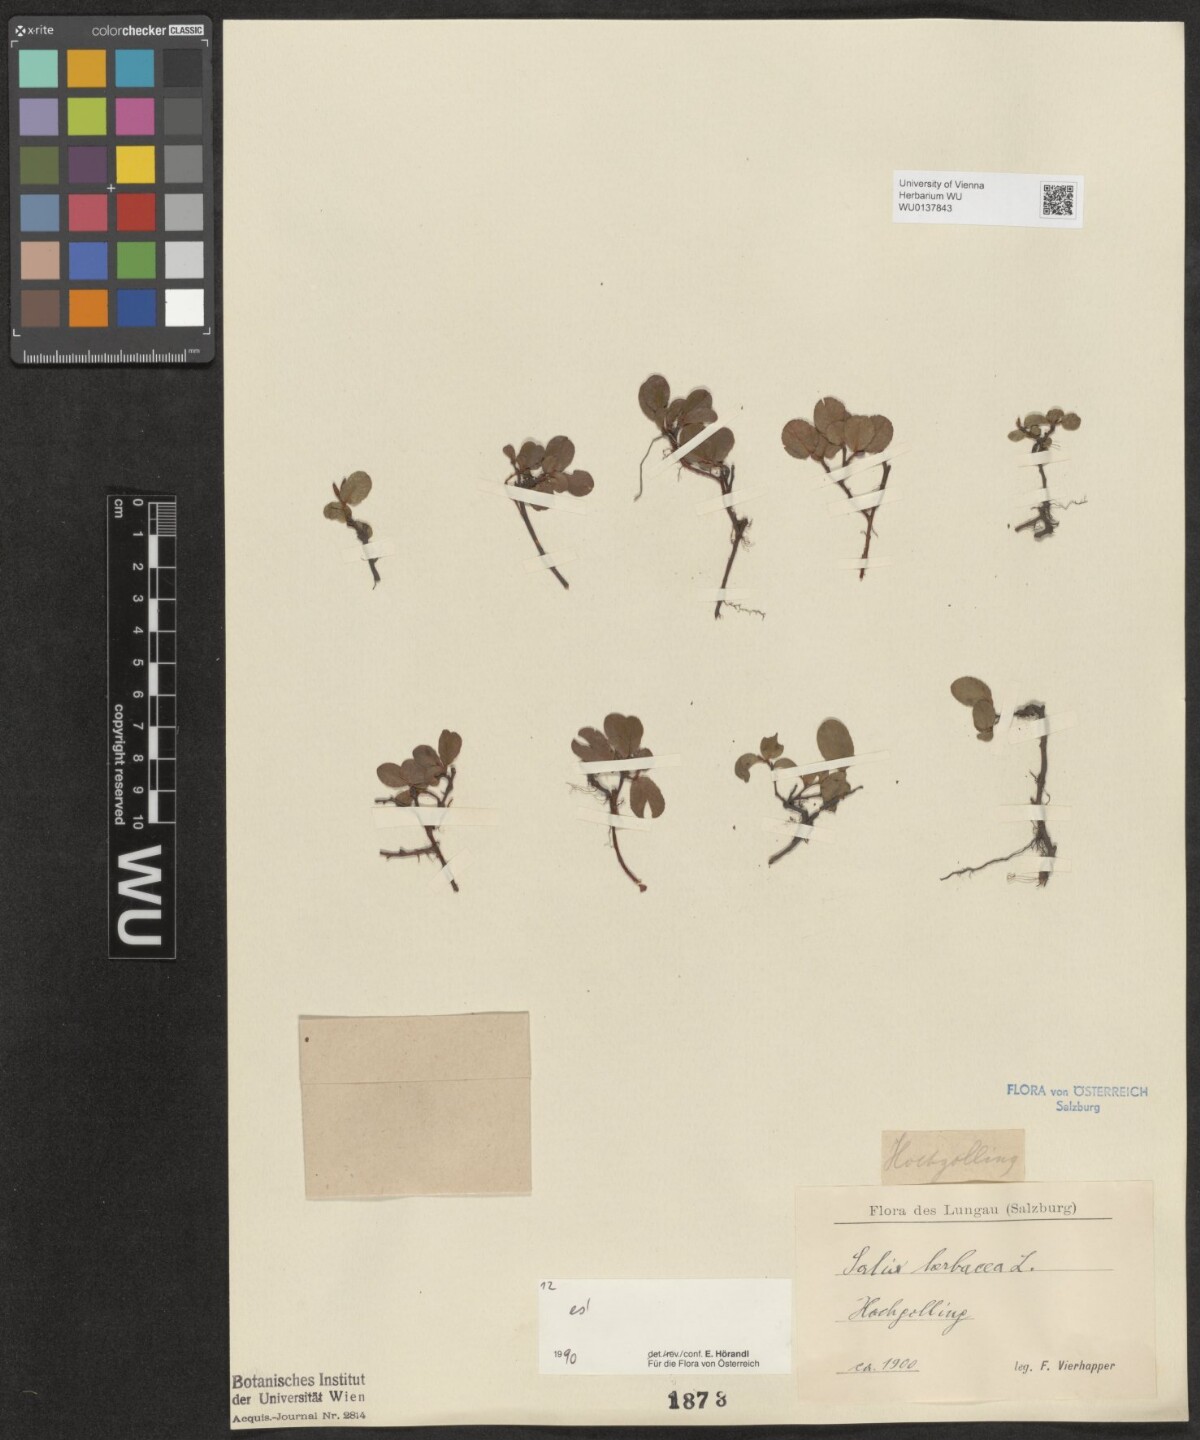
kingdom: Plantae
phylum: Tracheophyta
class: Magnoliopsida
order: Malpighiales
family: Salicaceae
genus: Salix
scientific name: Salix herbacea
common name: Dwarf willow
